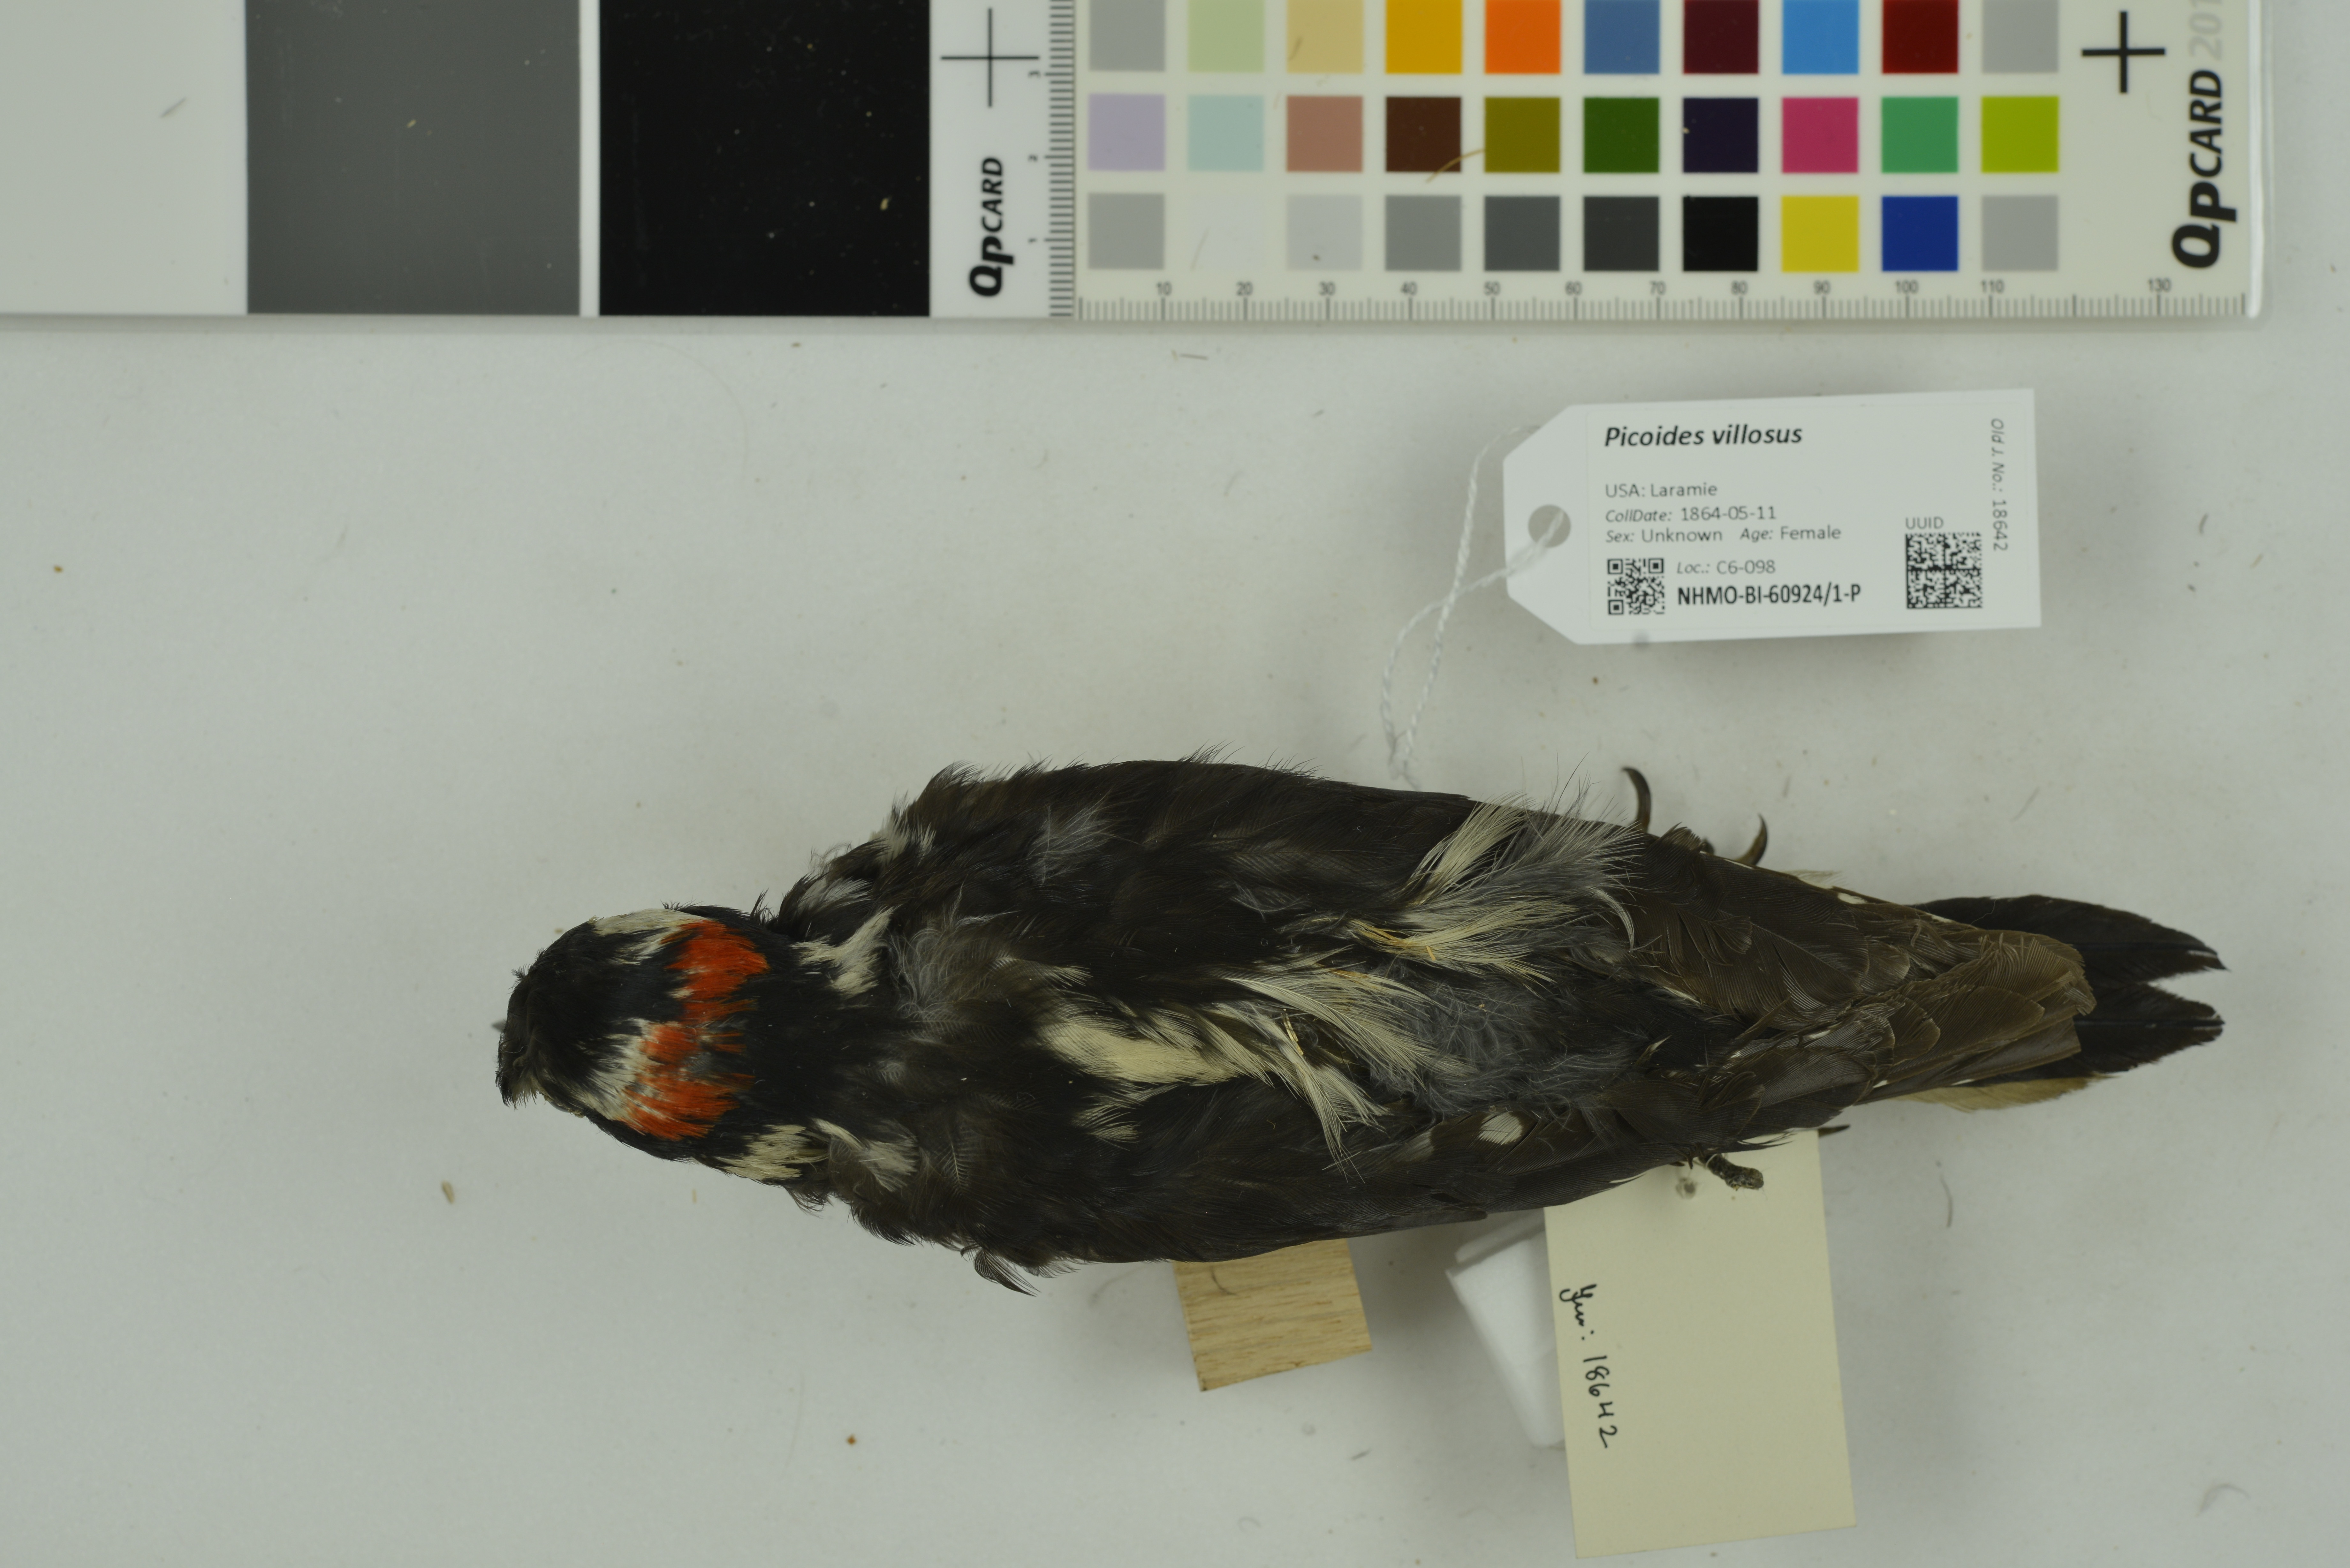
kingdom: Animalia
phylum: Chordata
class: Aves
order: Piciformes
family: Picidae
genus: Leuconotopicus
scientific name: Leuconotopicus villosus
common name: Hairy woodpecker
